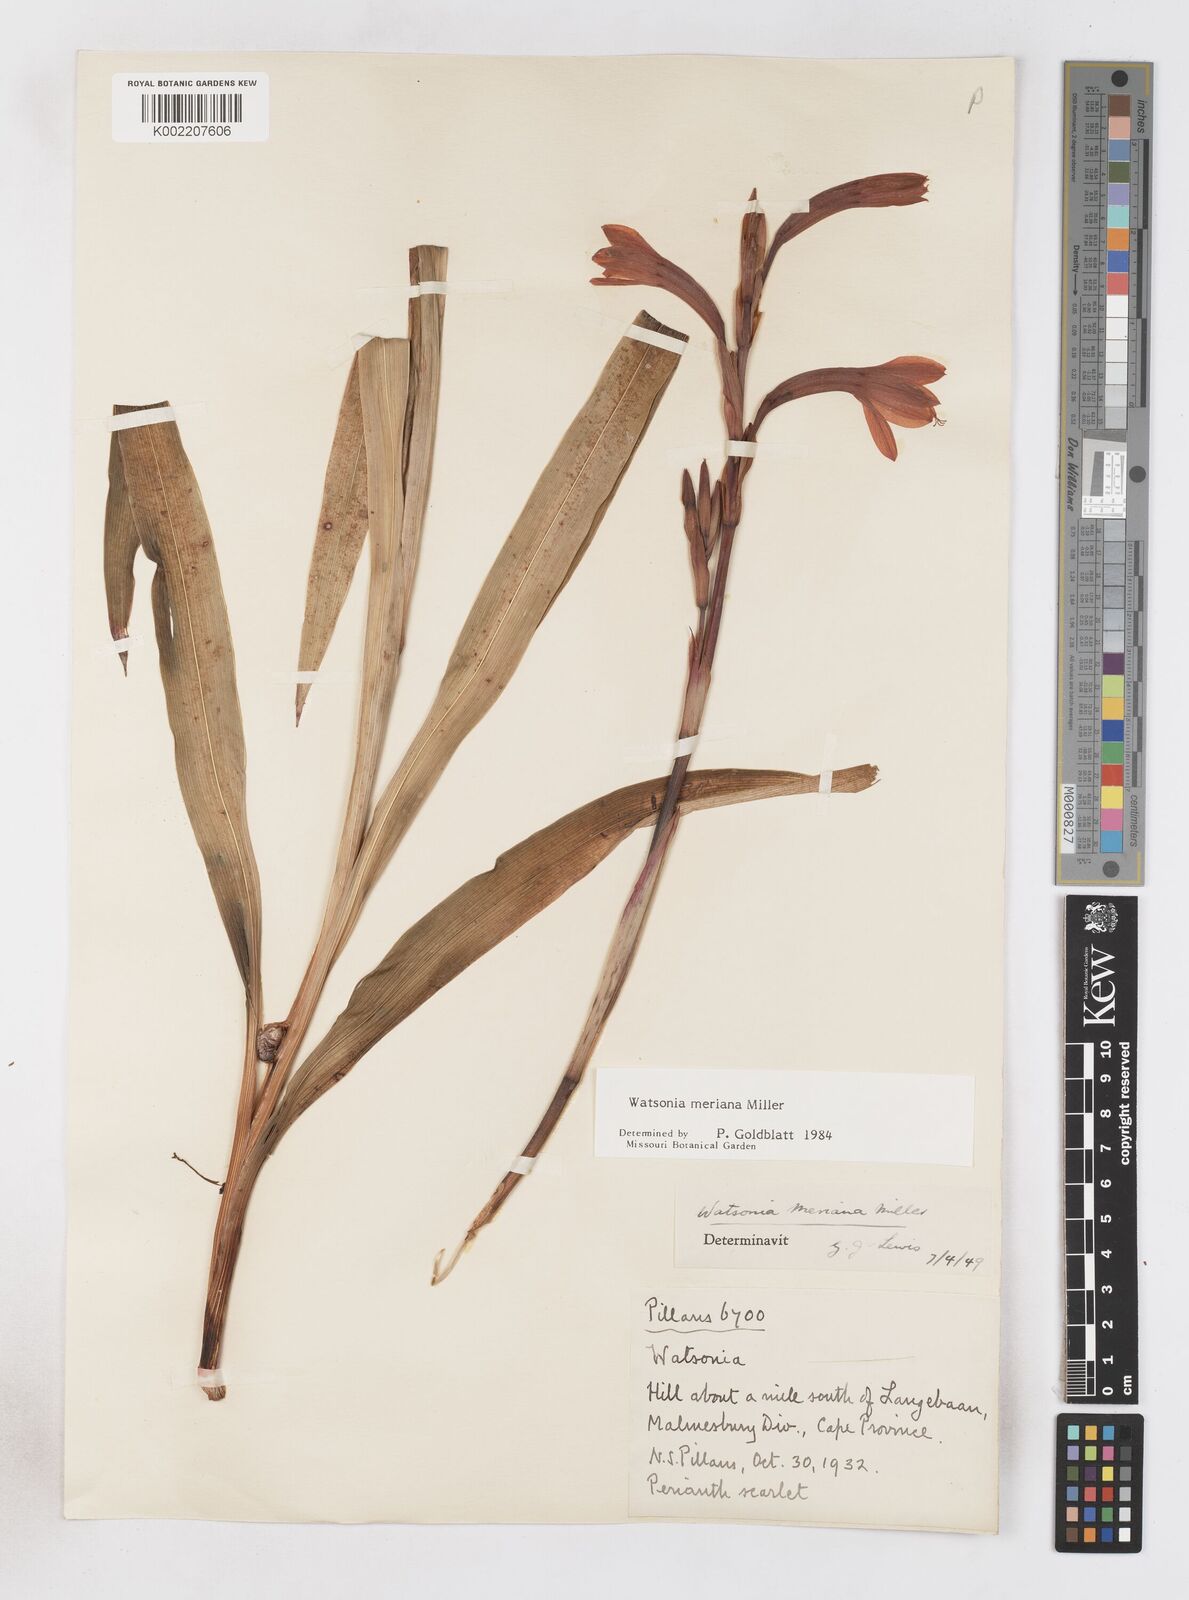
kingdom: Plantae
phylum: Tracheophyta
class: Liliopsida
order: Asparagales
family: Iridaceae
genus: Watsonia
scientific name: Watsonia meriana
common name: Bulbil bugle-lily
